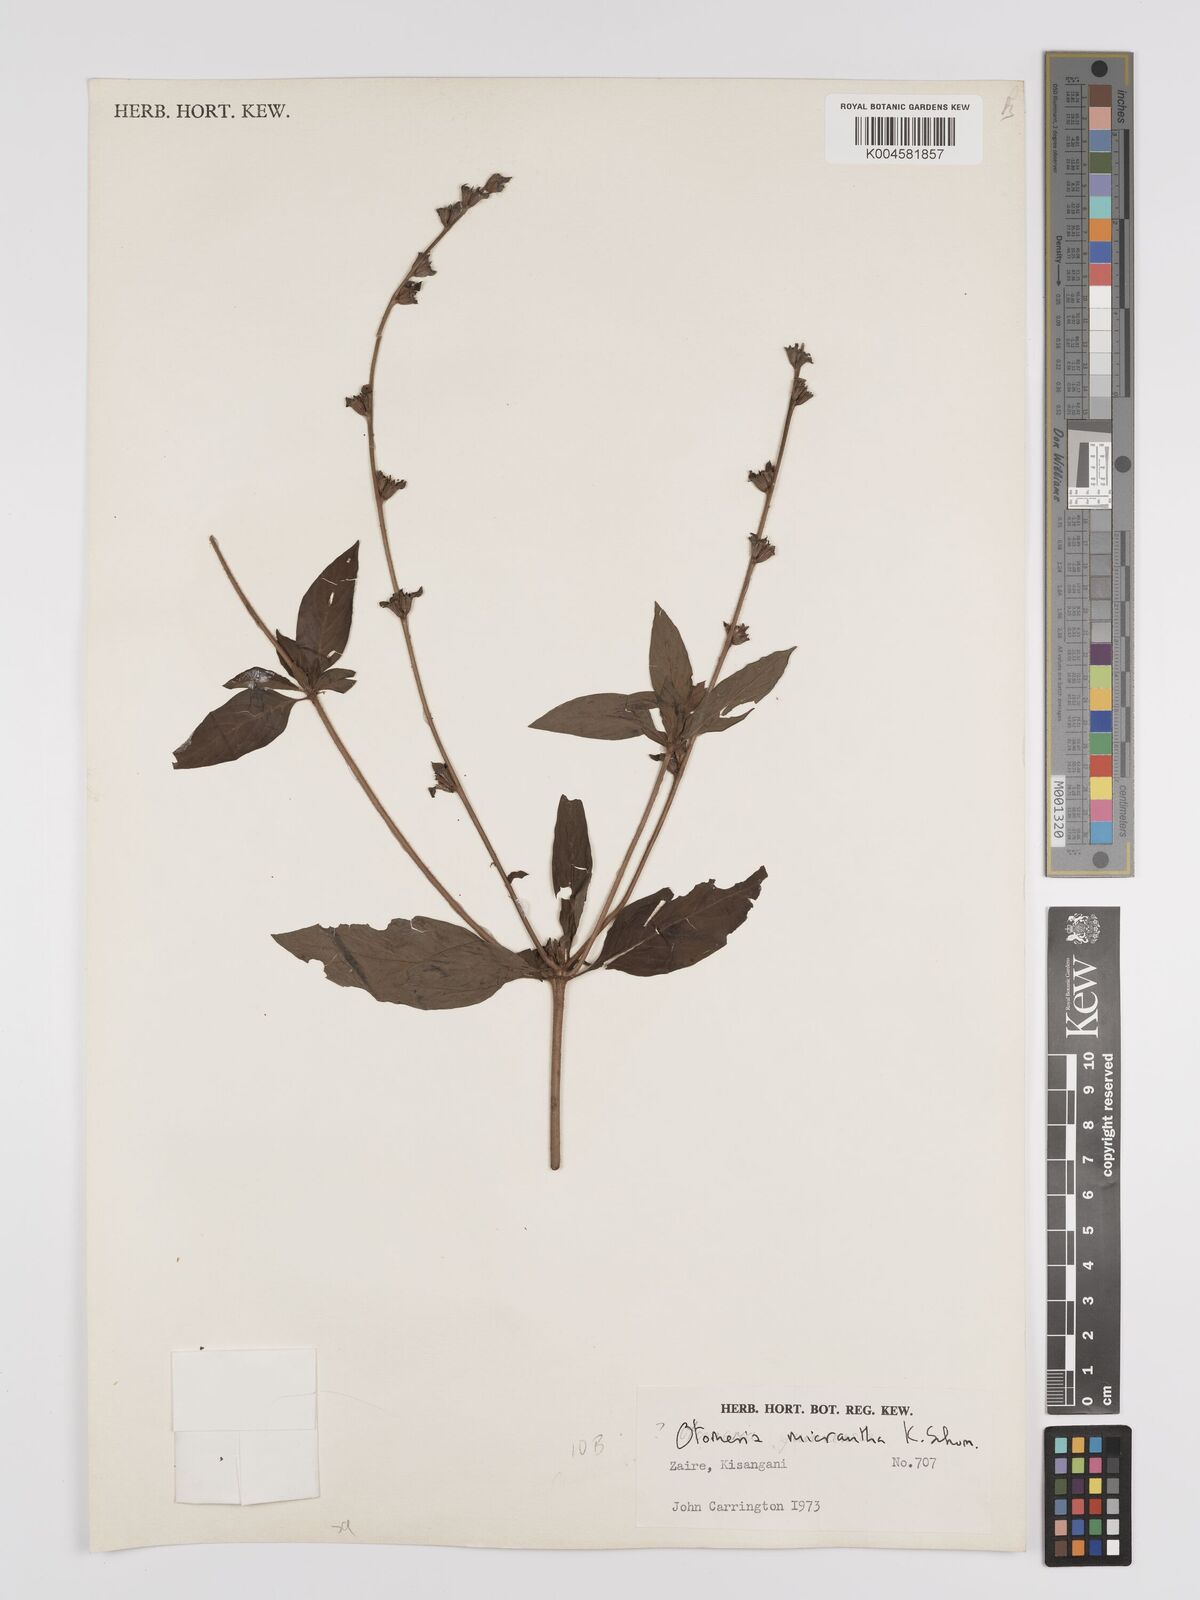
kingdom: Plantae
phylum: Tracheophyta
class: Magnoliopsida
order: Gentianales
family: Rubiaceae
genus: Otomeria
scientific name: Otomeria micrantha
